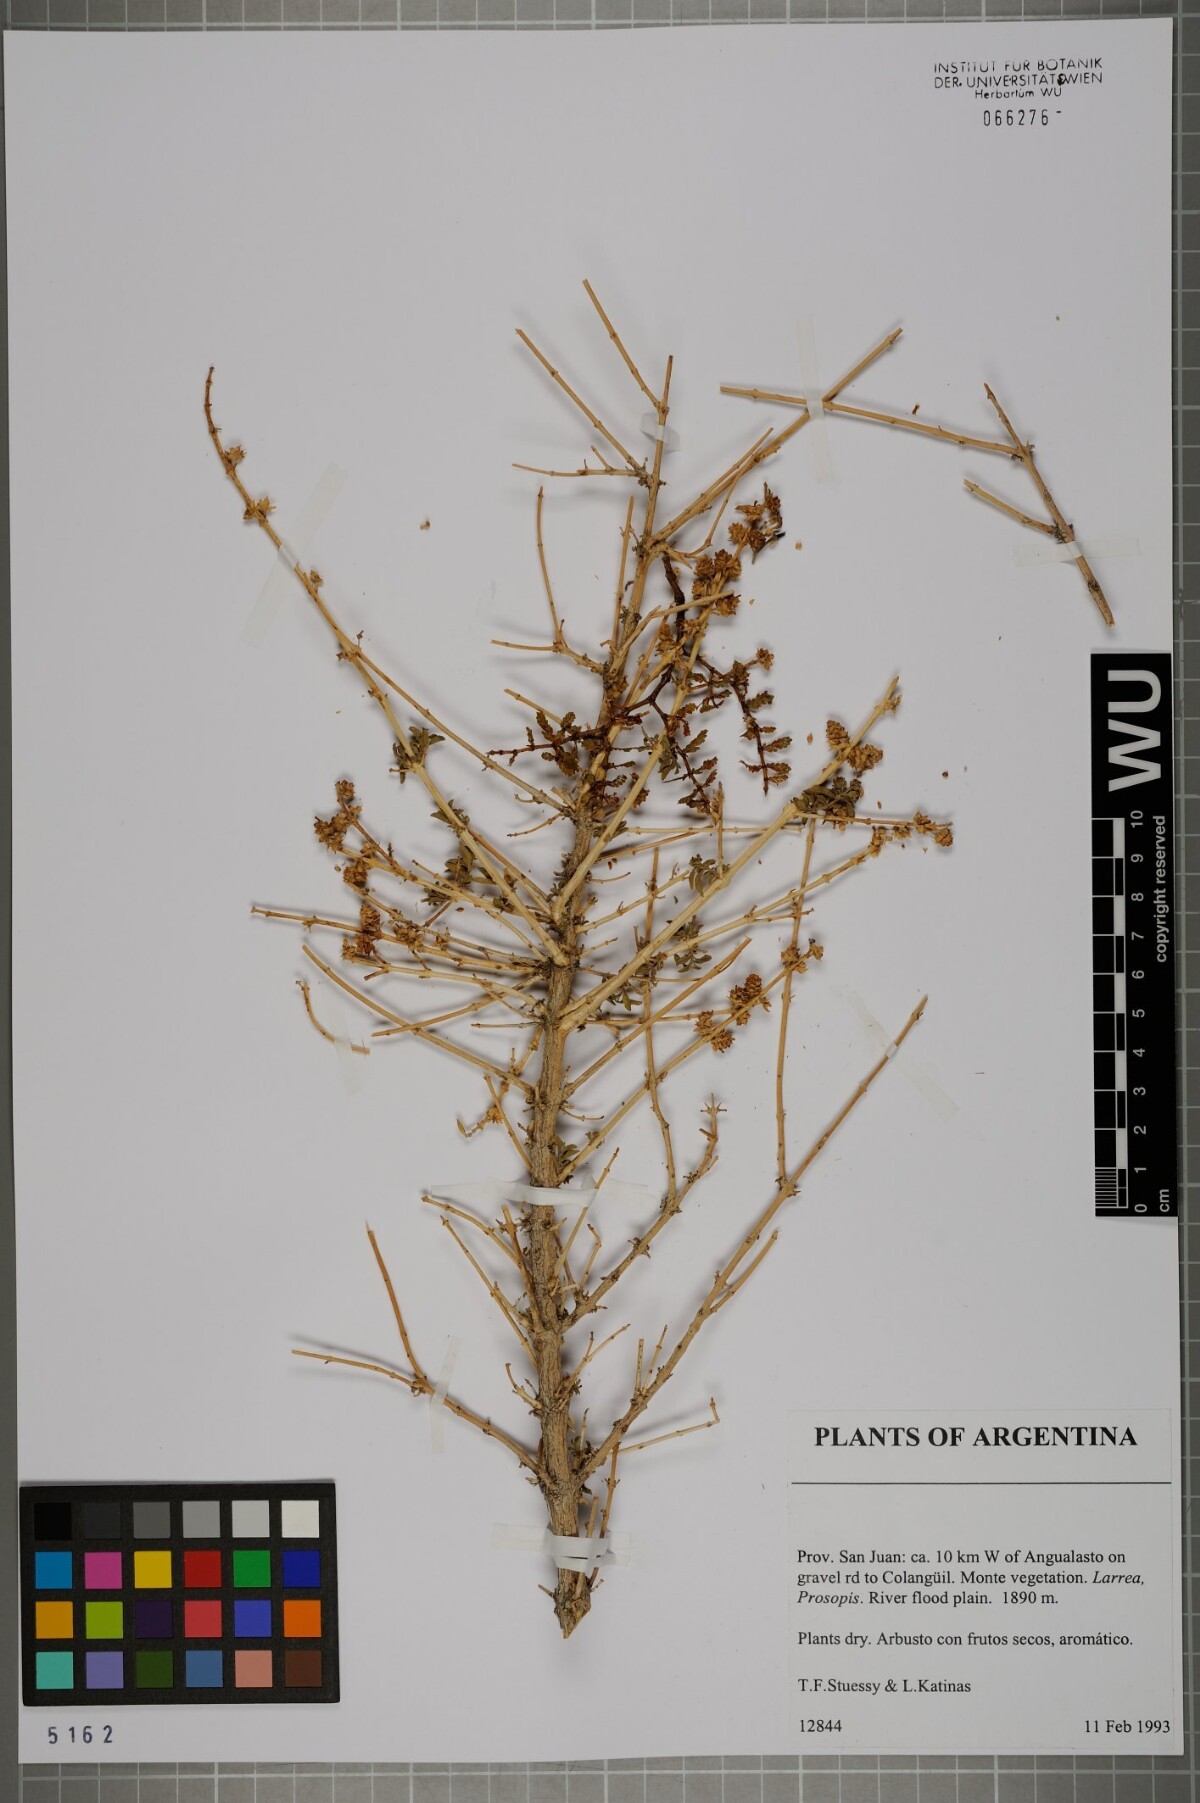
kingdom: Plantae
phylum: Tracheophyta
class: Magnoliopsida
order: Lamiales
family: Verbenaceae
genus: Acantholippia
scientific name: Acantholippia
